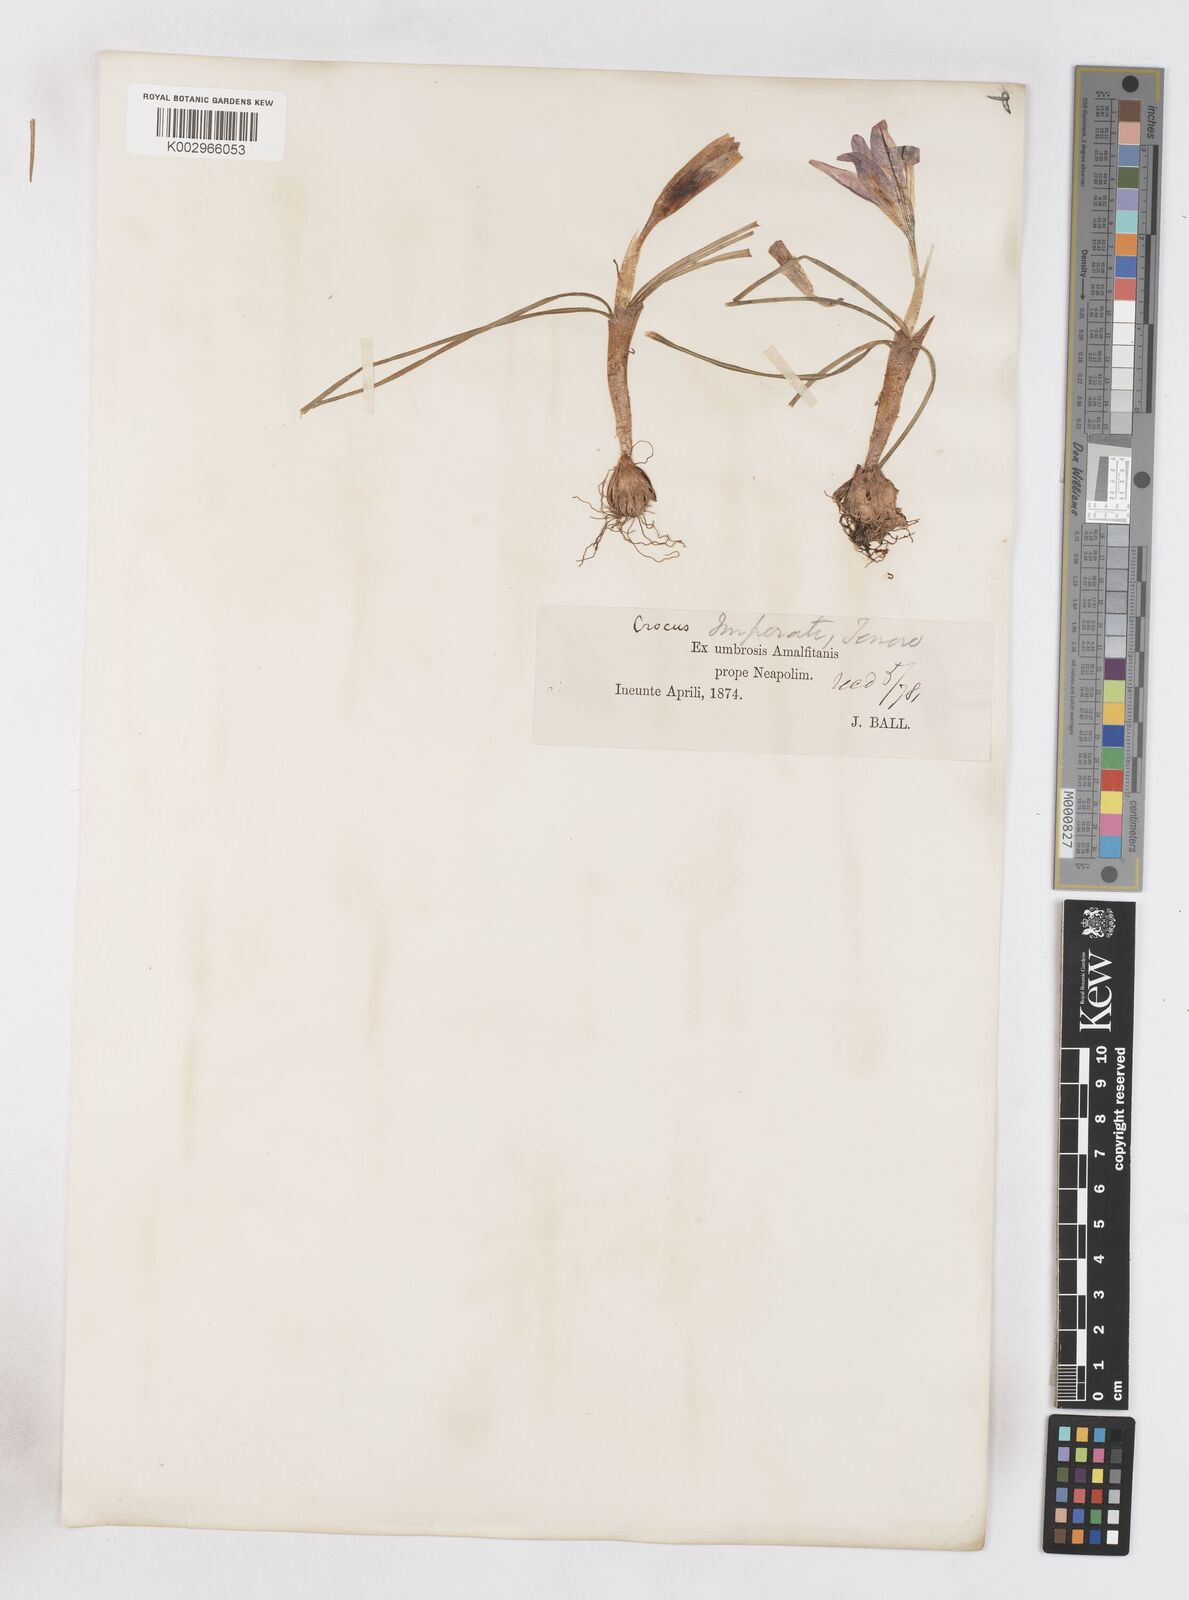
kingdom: Plantae
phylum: Tracheophyta
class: Liliopsida
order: Asparagales
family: Iridaceae
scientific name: Iridaceae
